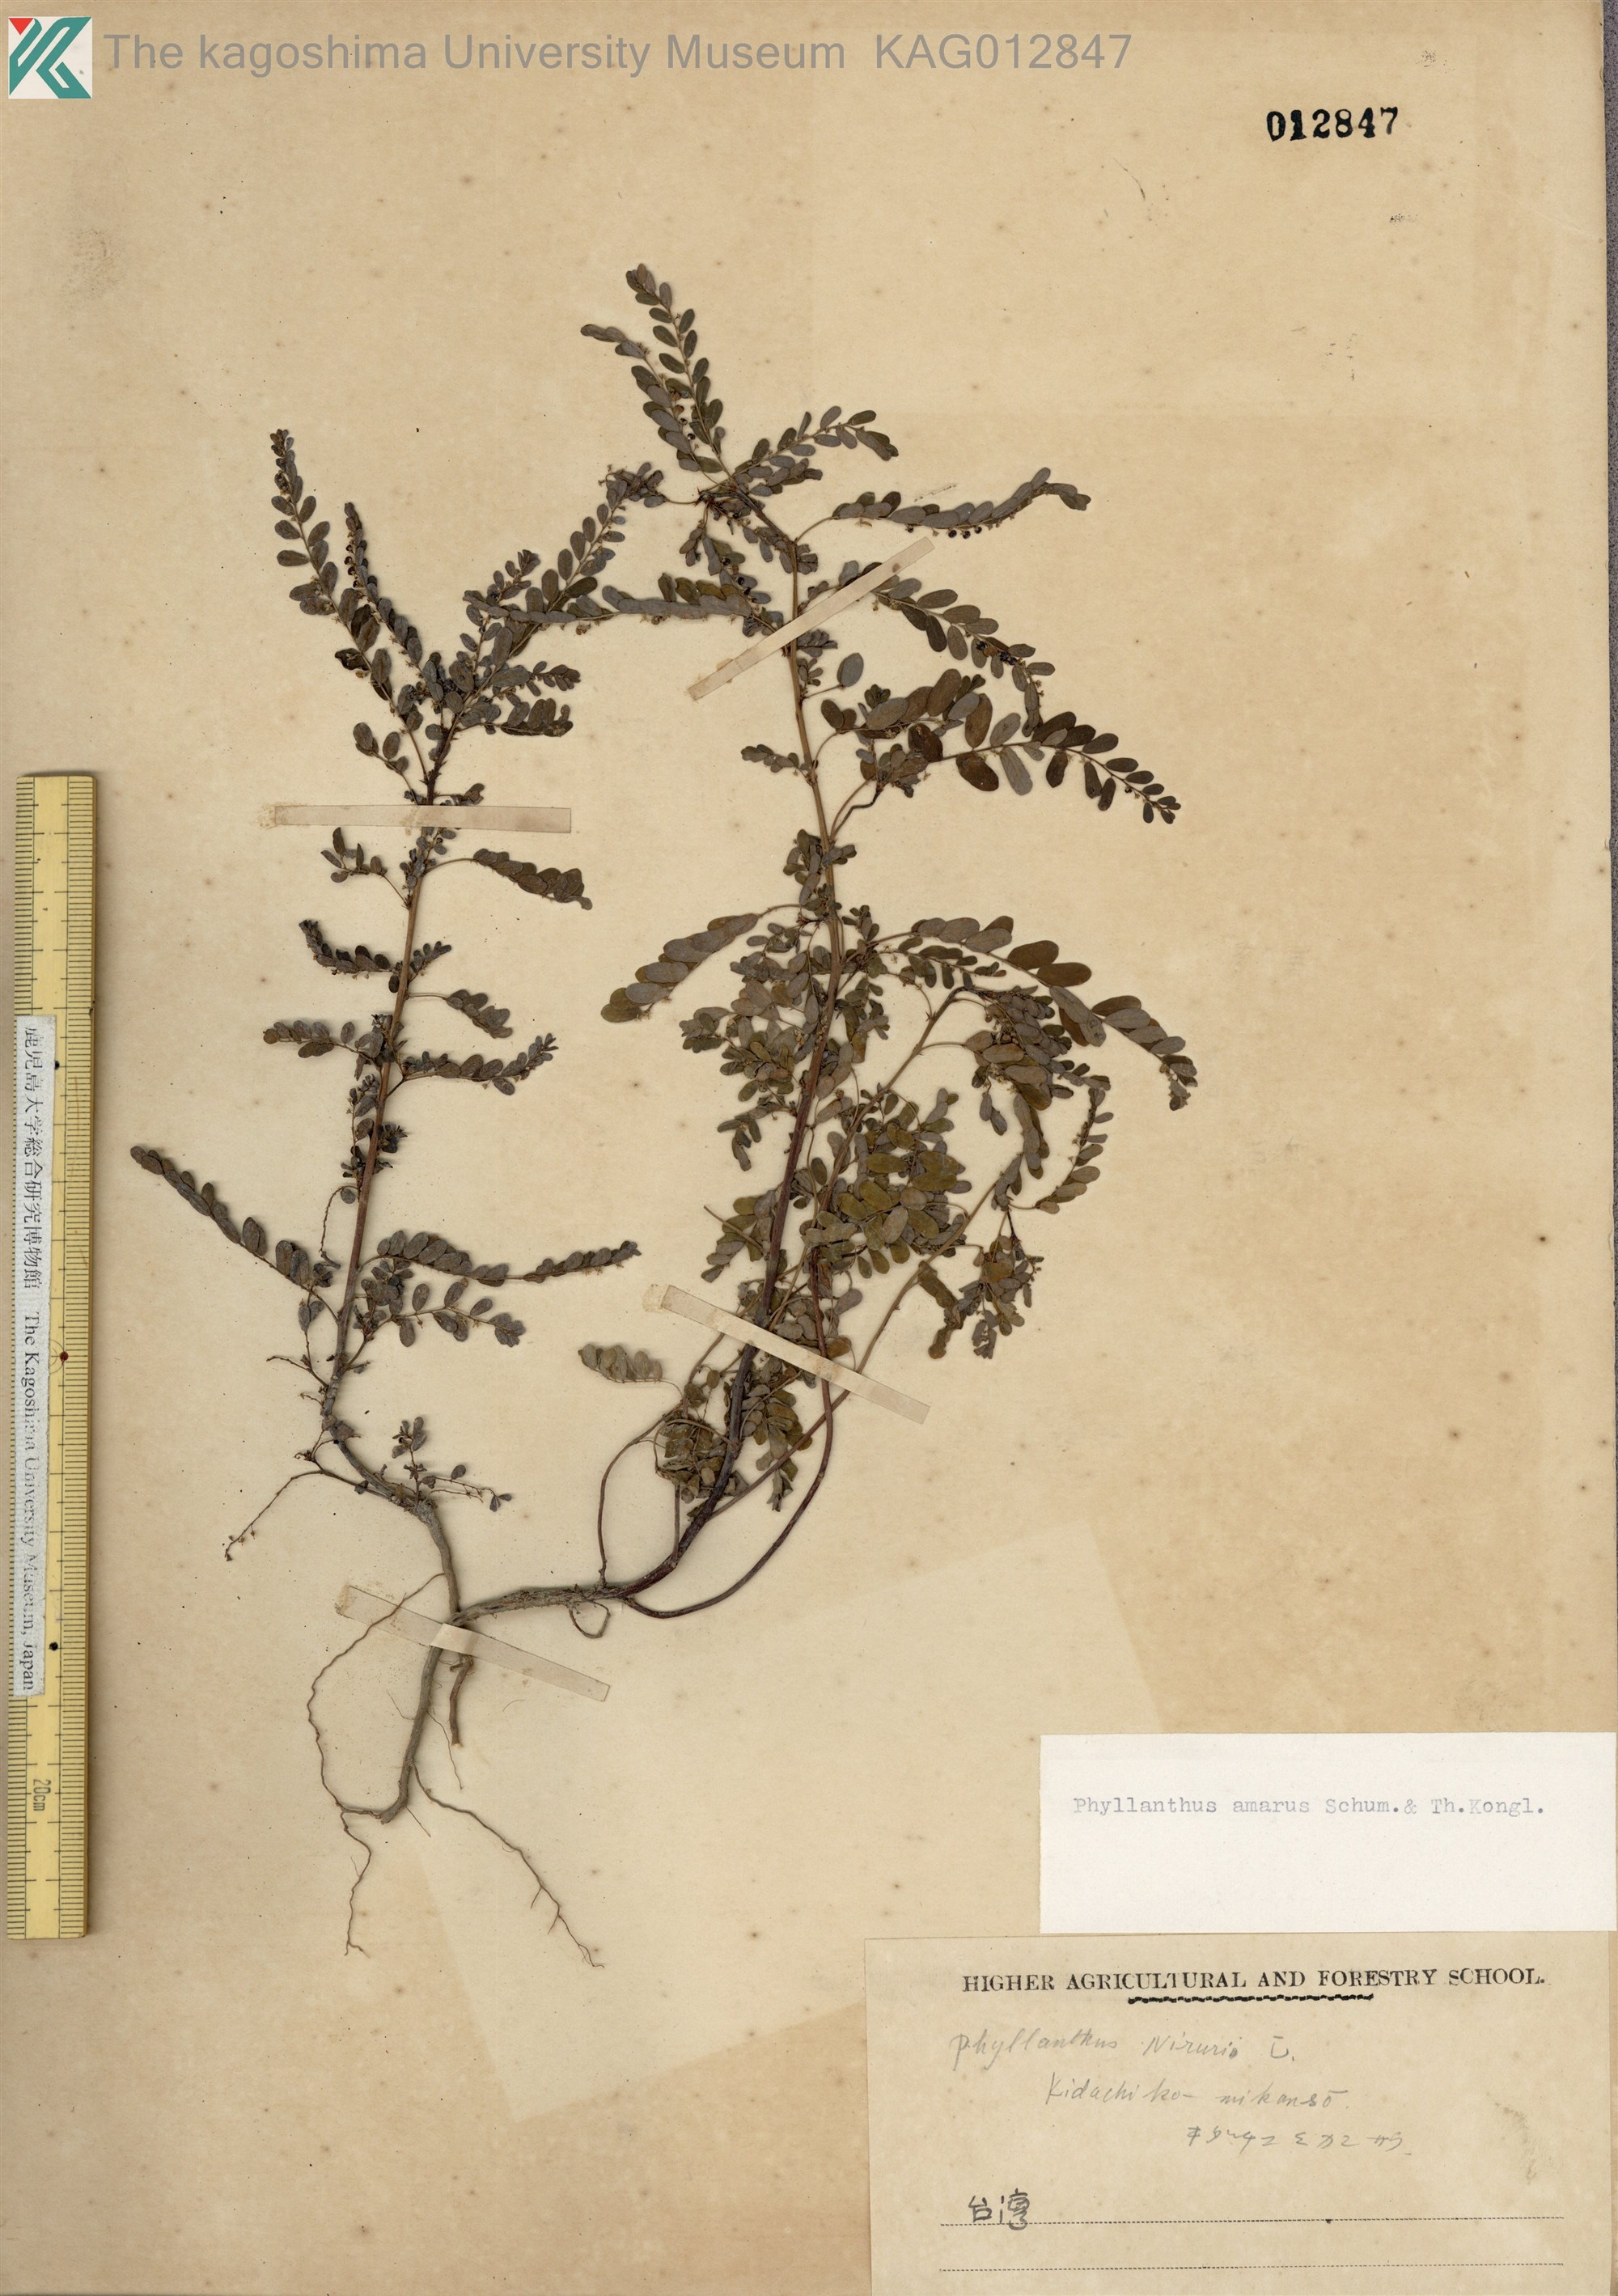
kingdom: Plantae
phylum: Tracheophyta
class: Magnoliopsida
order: Malpighiales
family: Phyllanthaceae
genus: Phyllanthus
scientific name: Phyllanthus amarus
